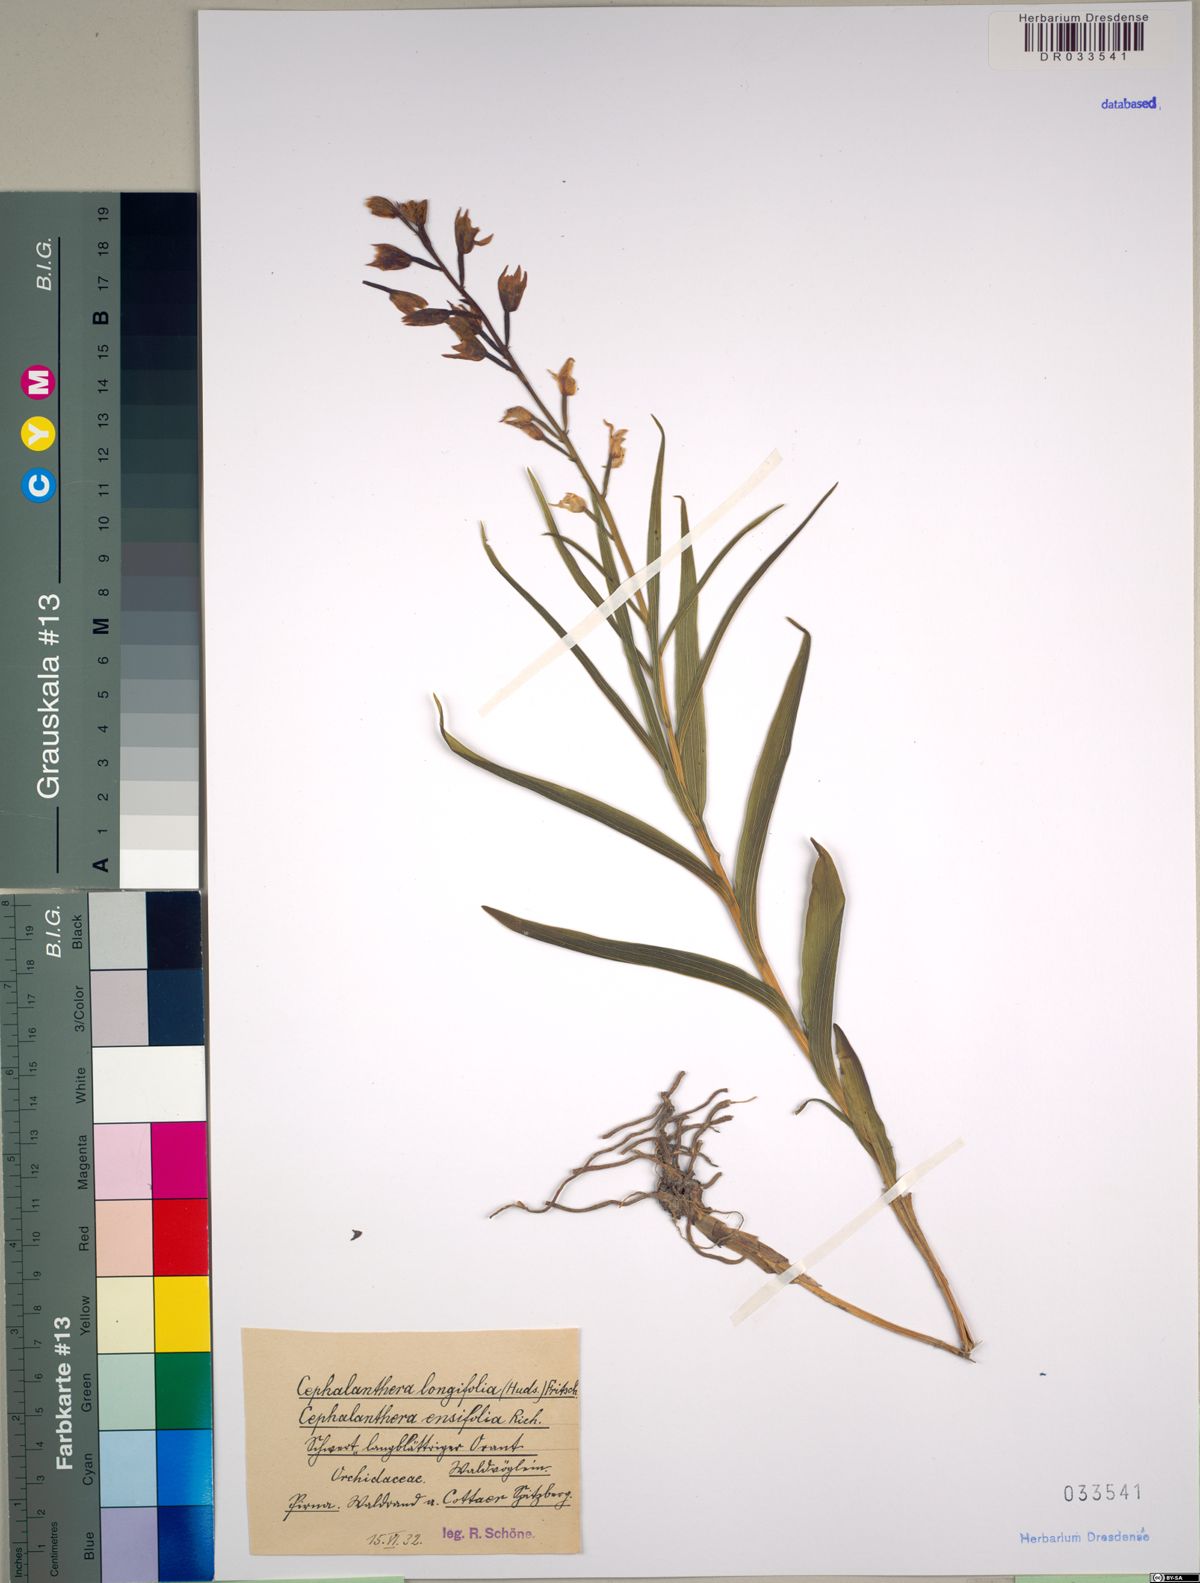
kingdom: Plantae
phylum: Tracheophyta
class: Liliopsida
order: Asparagales
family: Orchidaceae
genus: Cephalanthera
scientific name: Cephalanthera longifolia
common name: Narrow-leaved helleborine
